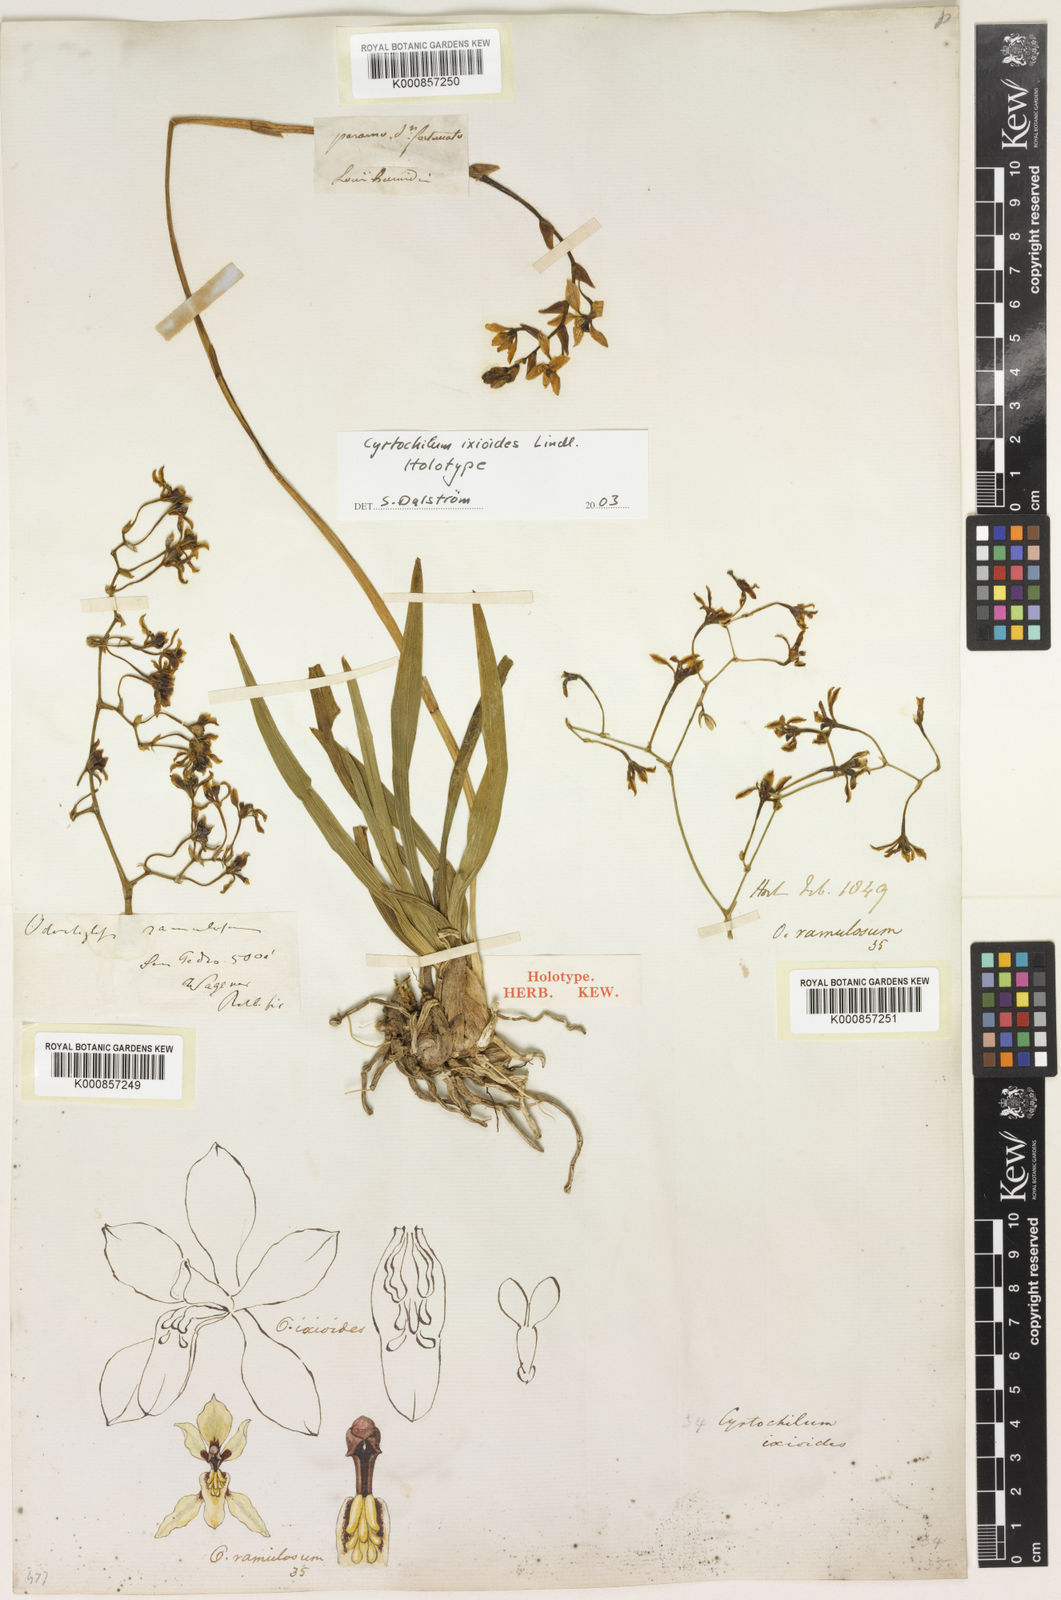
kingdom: Plantae
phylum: Tracheophyta
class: Liliopsida
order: Asparagales
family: Orchidaceae
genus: Cyrtochilum
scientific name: Cyrtochilum ixioides
